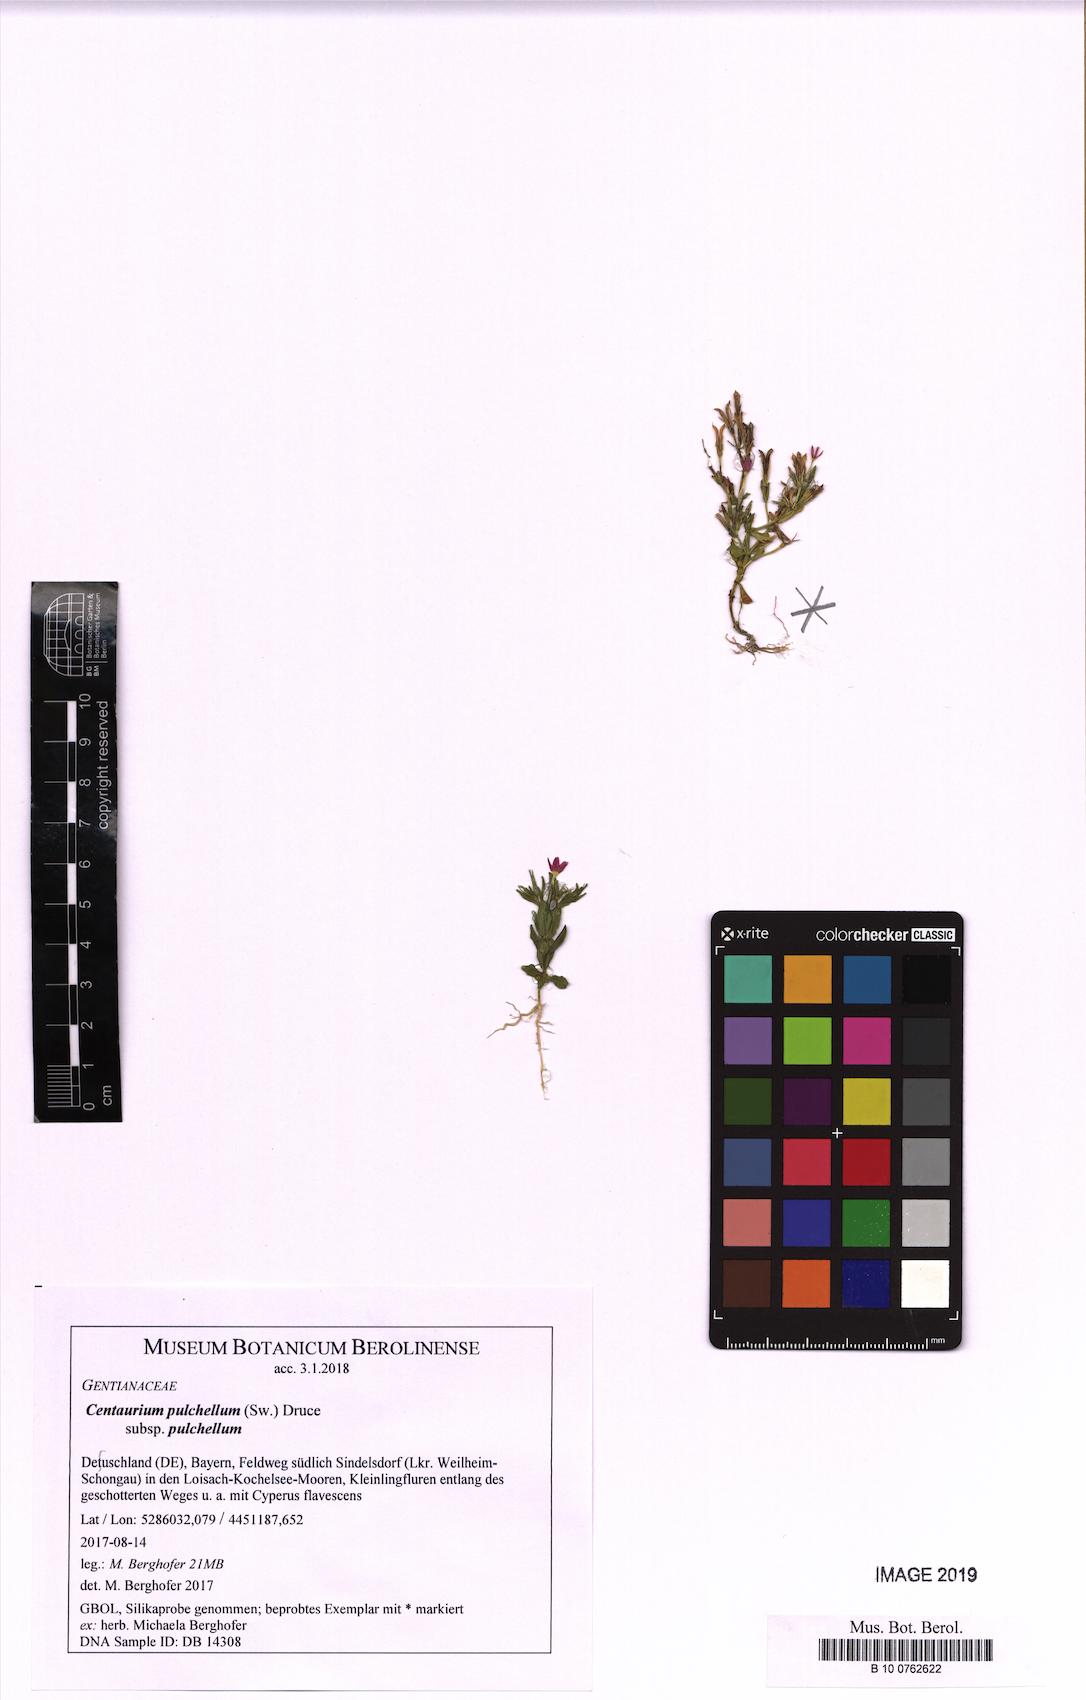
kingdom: Plantae
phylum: Tracheophyta
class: Magnoliopsida
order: Gentianales
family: Gentianaceae
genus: Centaurium
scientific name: Centaurium pulchellum
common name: Lesser centaury
